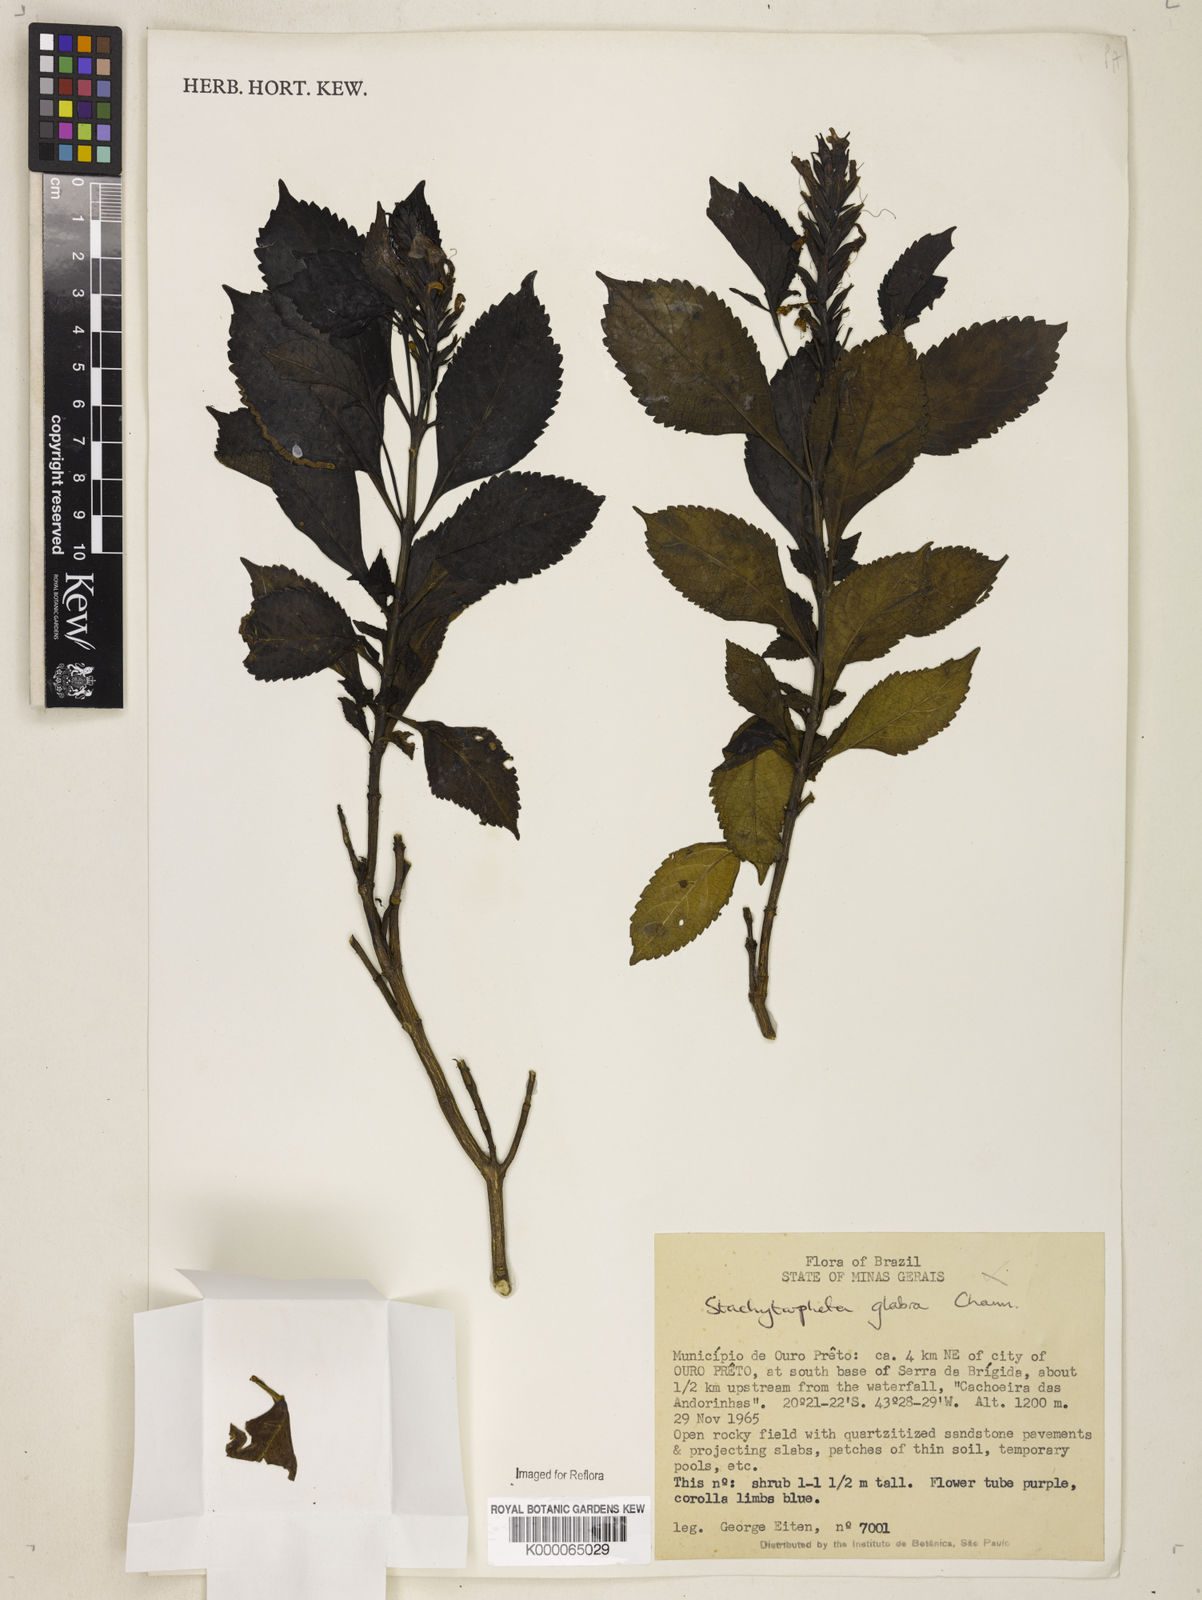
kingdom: Plantae
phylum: Tracheophyta
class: Magnoliopsida
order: Lamiales
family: Verbenaceae
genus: Stachytarpheta
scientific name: Stachytarpheta glabra
